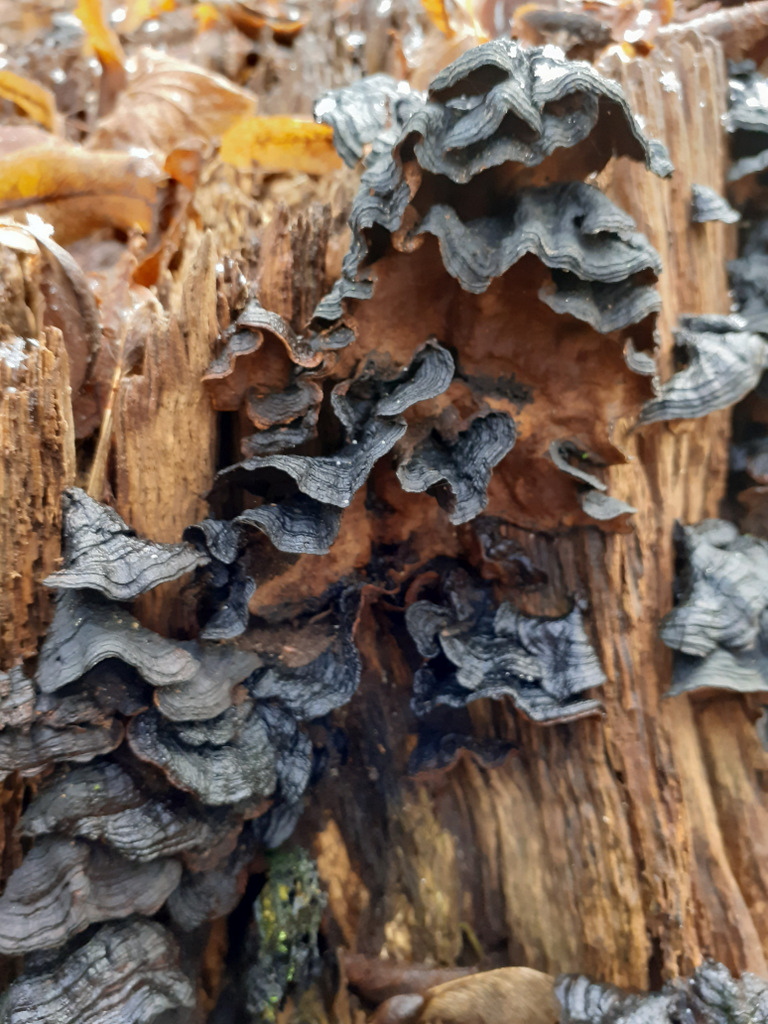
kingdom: Fungi
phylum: Basidiomycota
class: Agaricomycetes
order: Hymenochaetales
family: Hymenochaetaceae
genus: Hymenochaete
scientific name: Hymenochaete rubiginosa
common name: stiv ruslædersvamp
